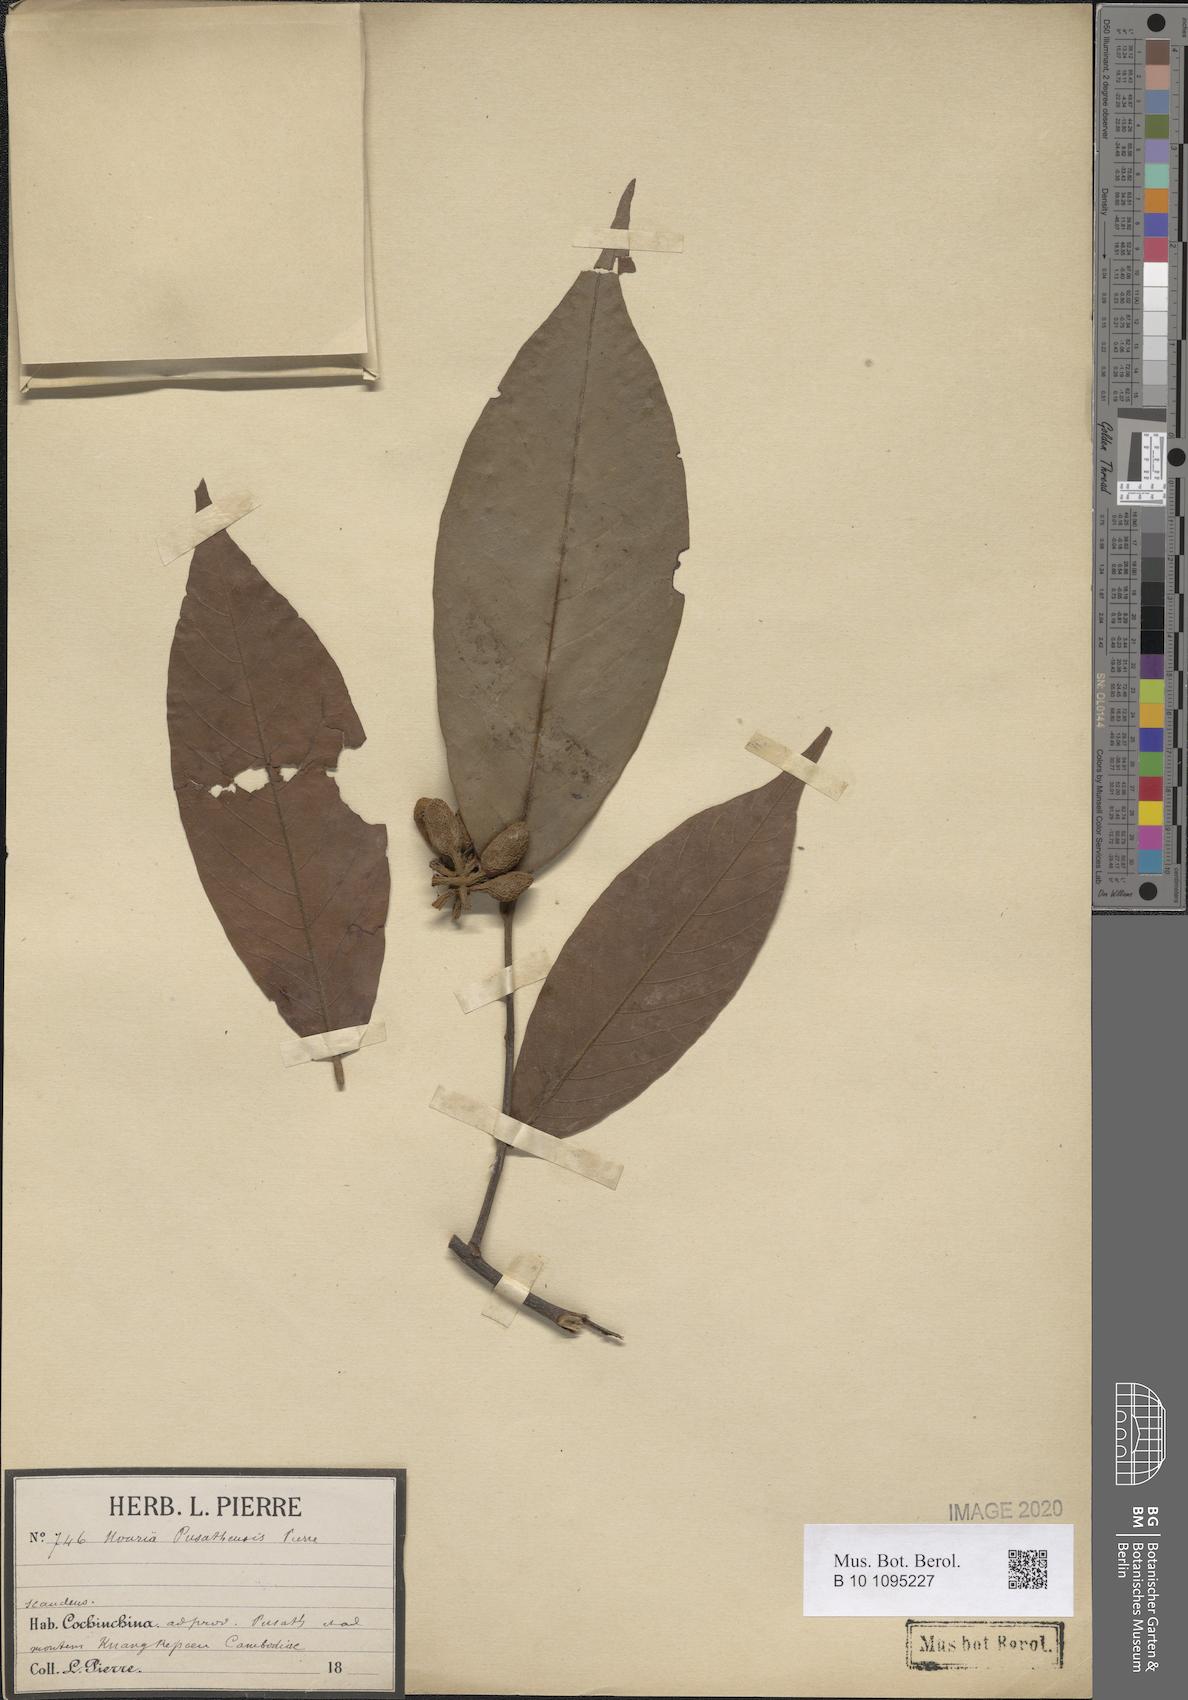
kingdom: Plantae
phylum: Tracheophyta
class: Magnoliopsida
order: Magnoliales
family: Annonaceae
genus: Uvaria
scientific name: Uvaria
